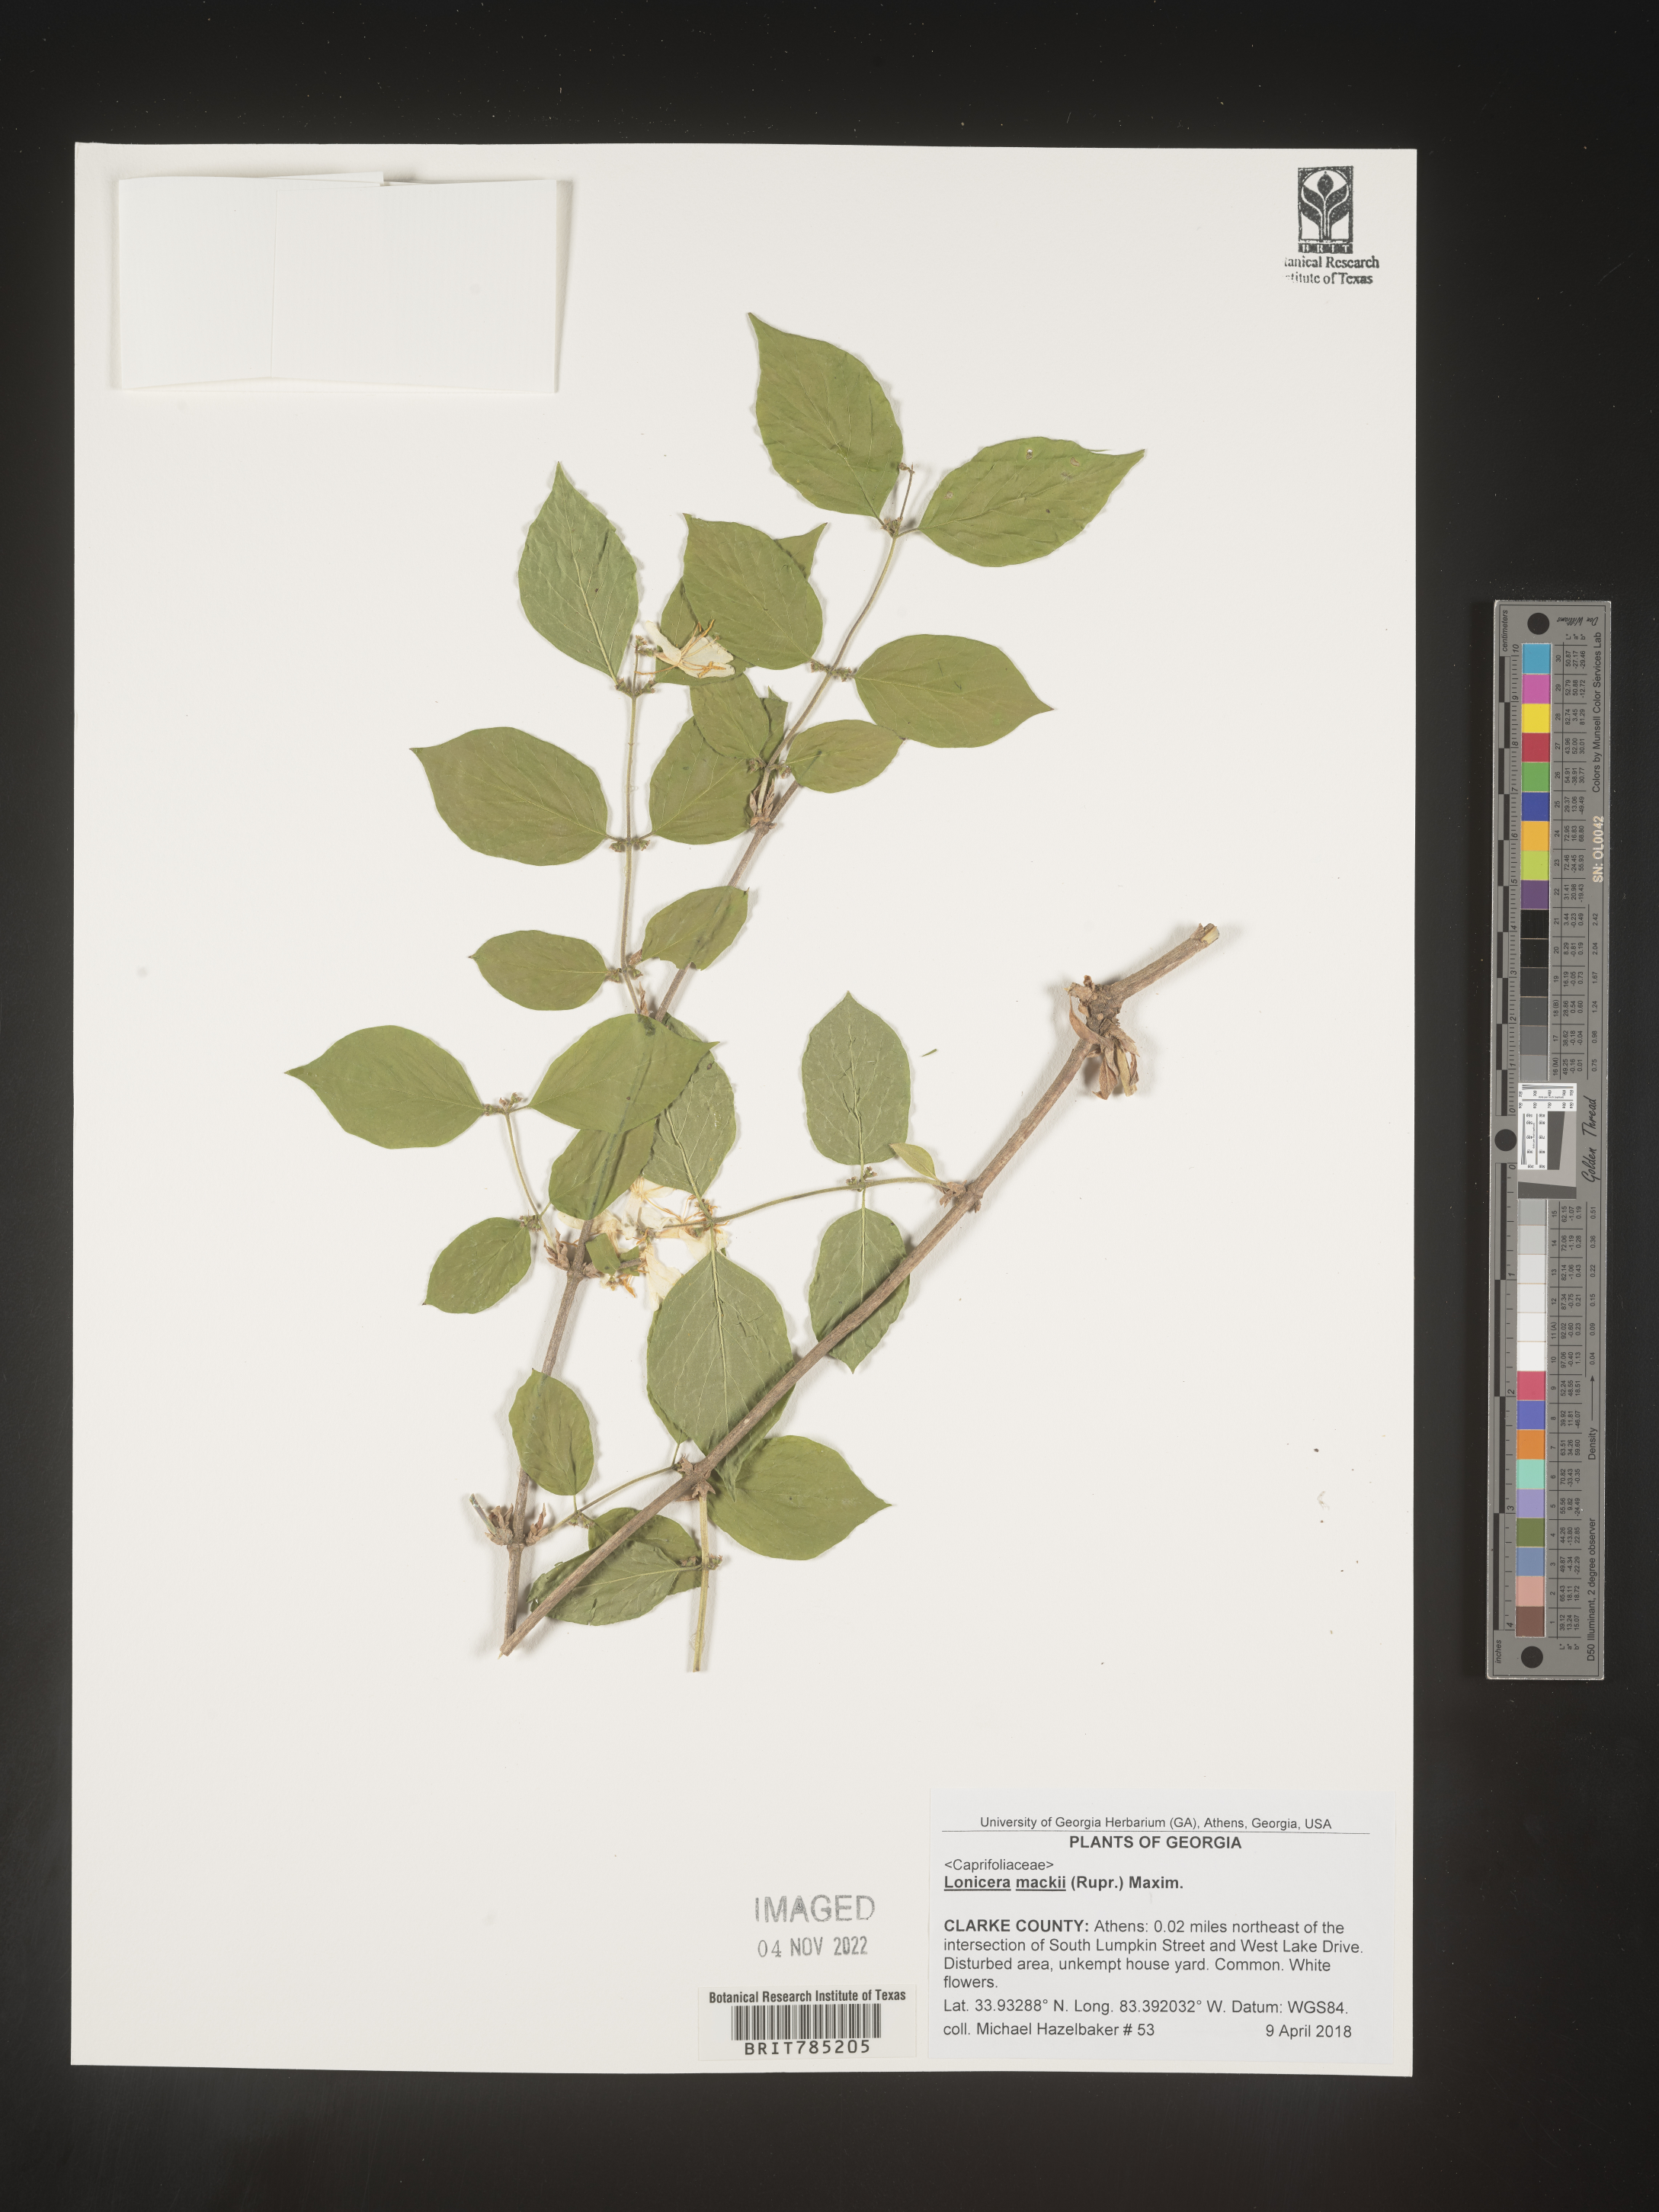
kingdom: Plantae
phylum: Tracheophyta
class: Magnoliopsida
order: Dipsacales
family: Caprifoliaceae
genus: Lonicera
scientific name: Lonicera
